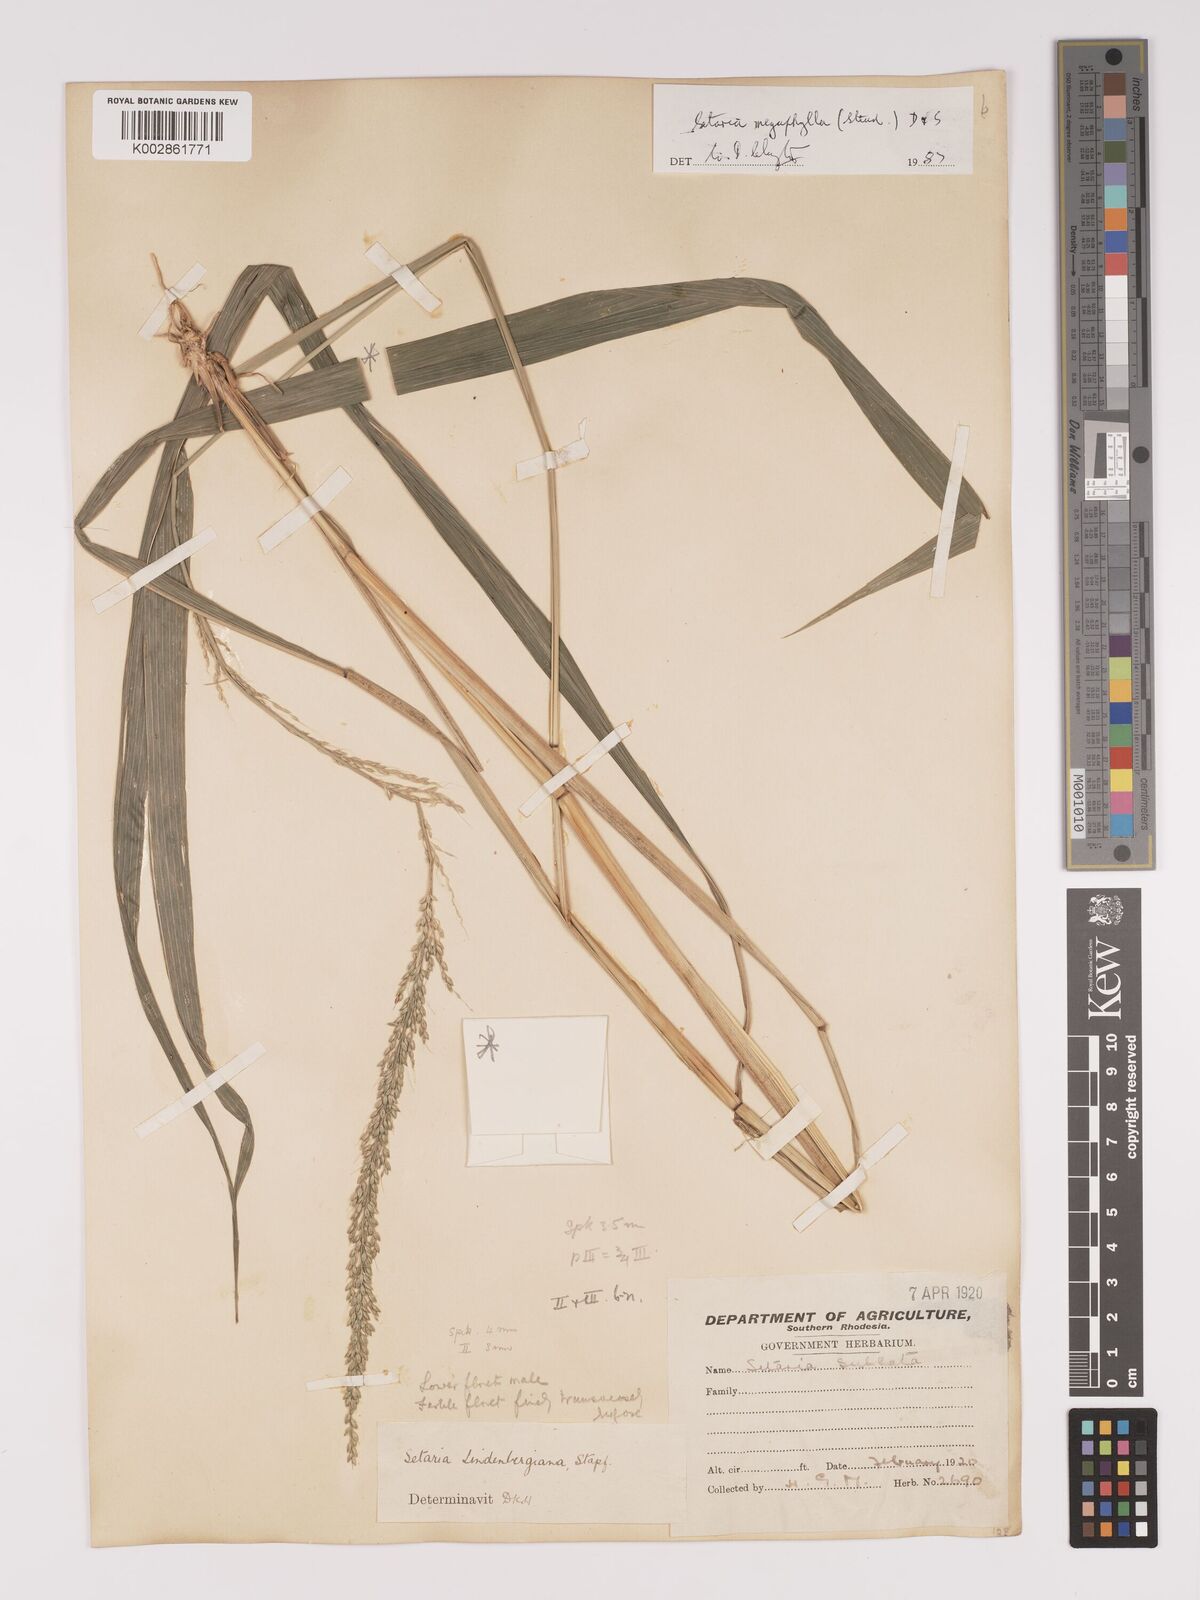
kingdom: Plantae
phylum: Tracheophyta
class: Liliopsida
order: Poales
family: Poaceae
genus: Setaria
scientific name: Setaria megaphylla
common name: Bigleaf bristlegrass
